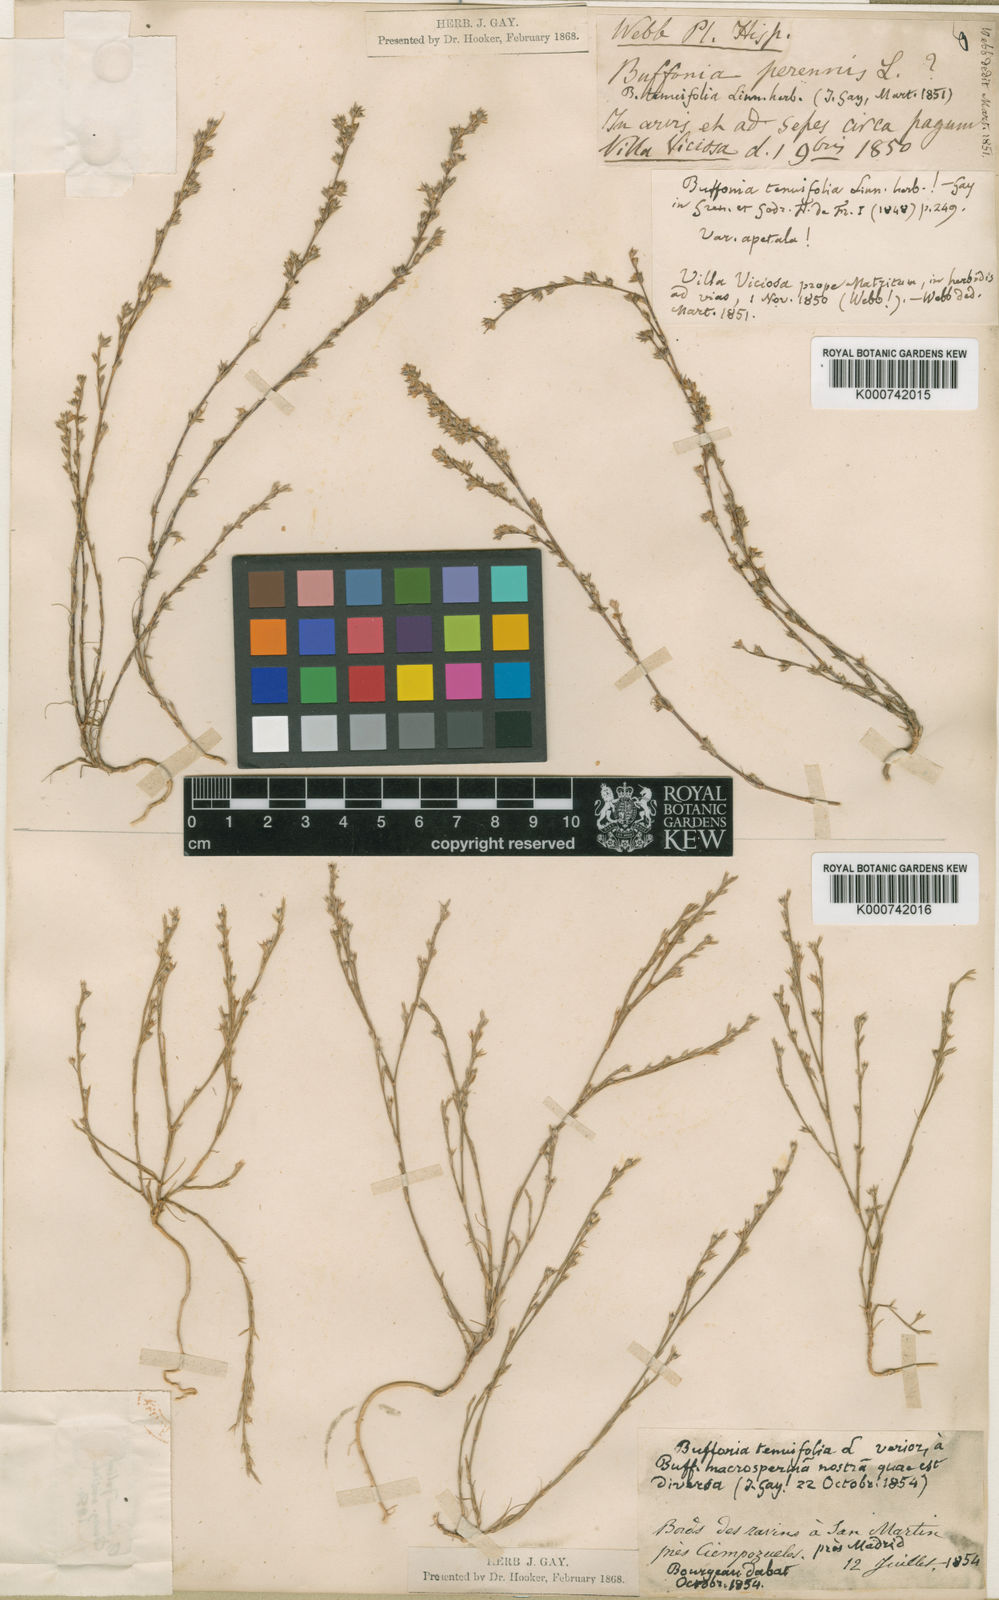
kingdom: Plantae
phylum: Tracheophyta
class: Magnoliopsida
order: Caryophyllales
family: Caryophyllaceae
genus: Bufonia
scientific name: Bufonia tenuifolia
